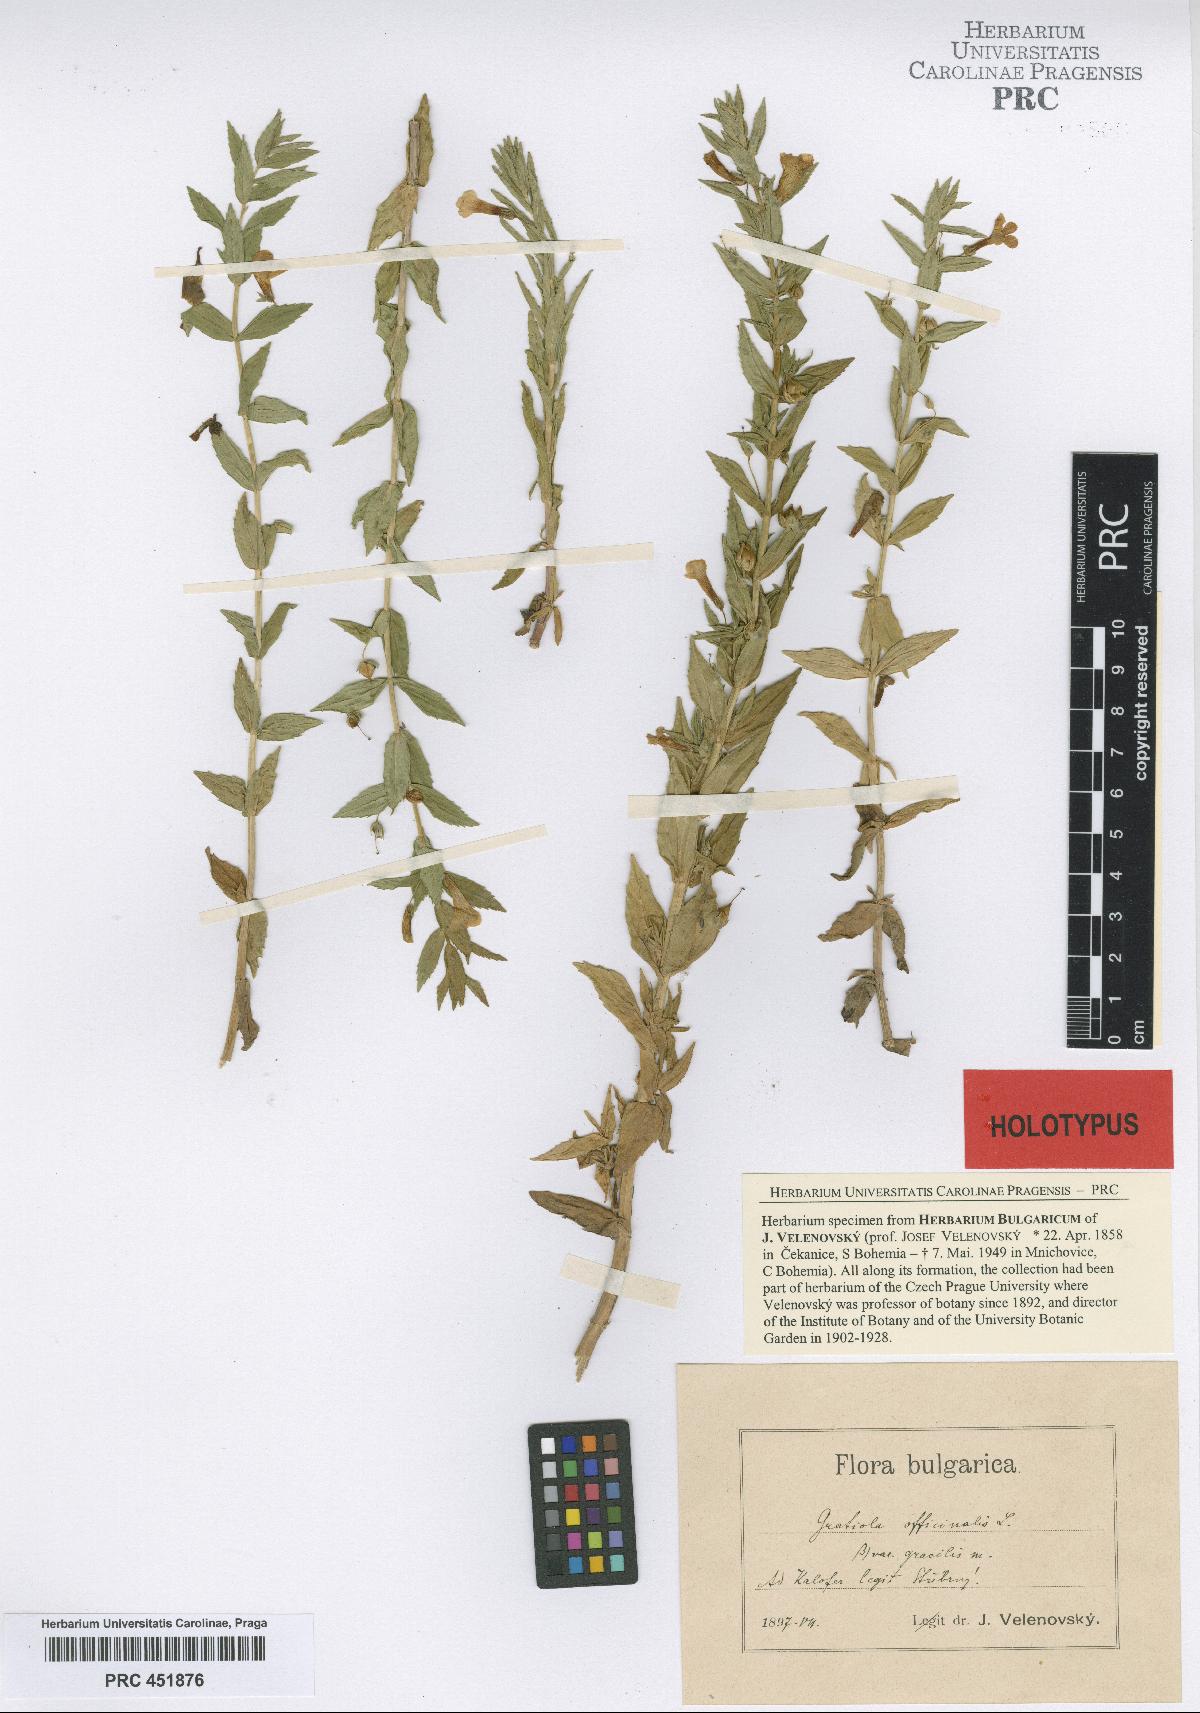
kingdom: Plantae
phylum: Tracheophyta
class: Magnoliopsida
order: Lamiales
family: Plantaginaceae
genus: Gratiola
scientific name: Gratiola officinalis
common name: Gratiola
